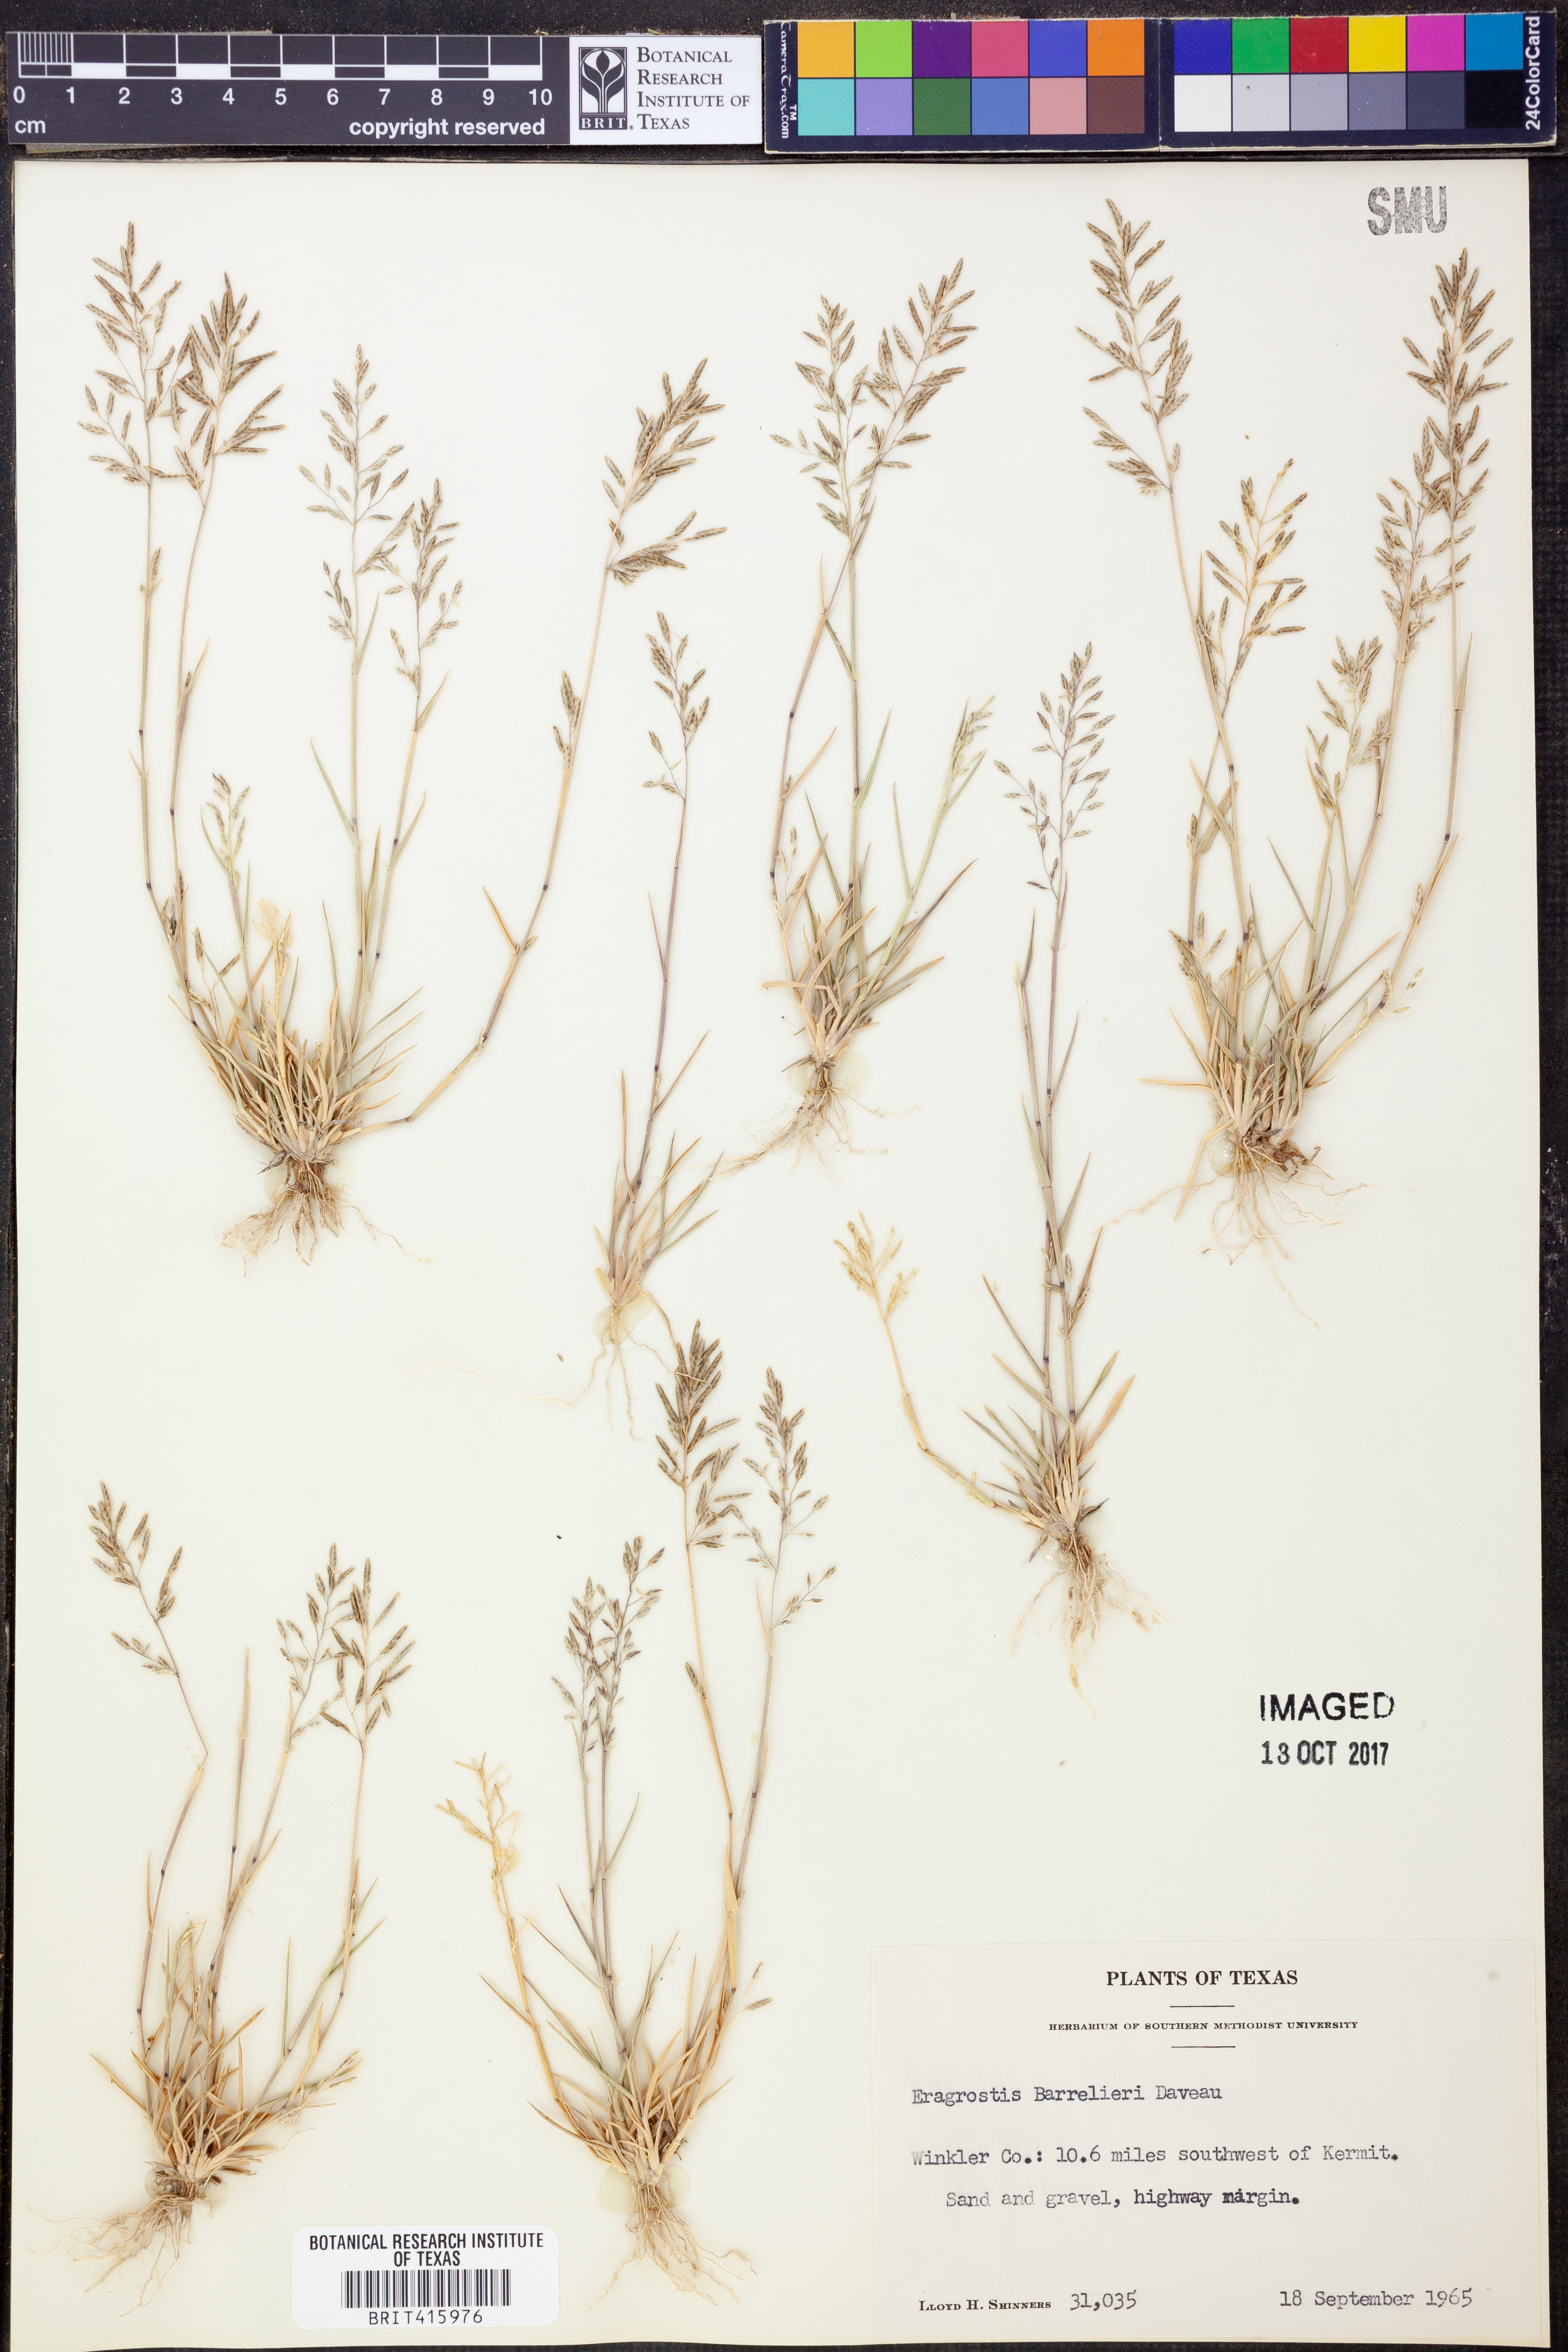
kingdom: Plantae
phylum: Tracheophyta
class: Liliopsida
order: Poales
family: Poaceae
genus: Eragrostis
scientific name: Eragrostis barrelieri
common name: Mediterranean lovegrass
